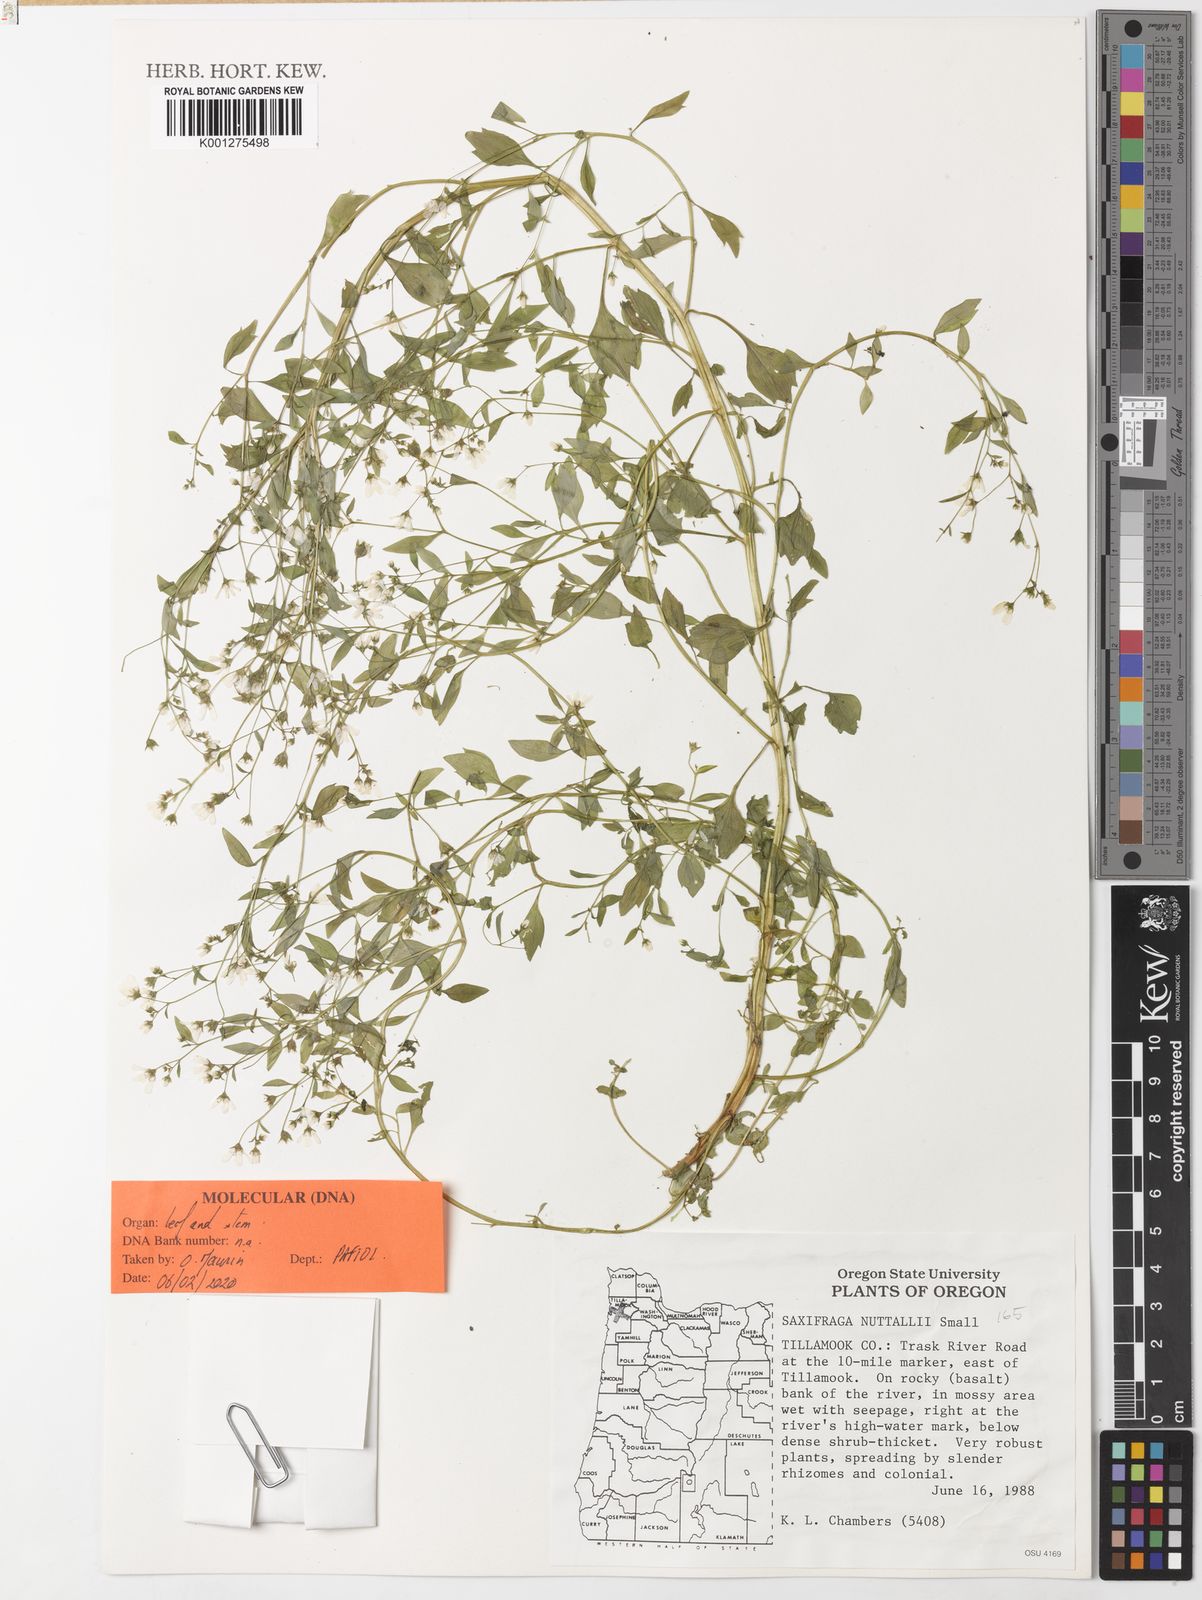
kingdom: Plantae
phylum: Tracheophyta
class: Magnoliopsida
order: Saxifragales
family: Saxifragaceae
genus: Cascadia
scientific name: Cascadia nuttallii
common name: Nuttall's saxifrage
